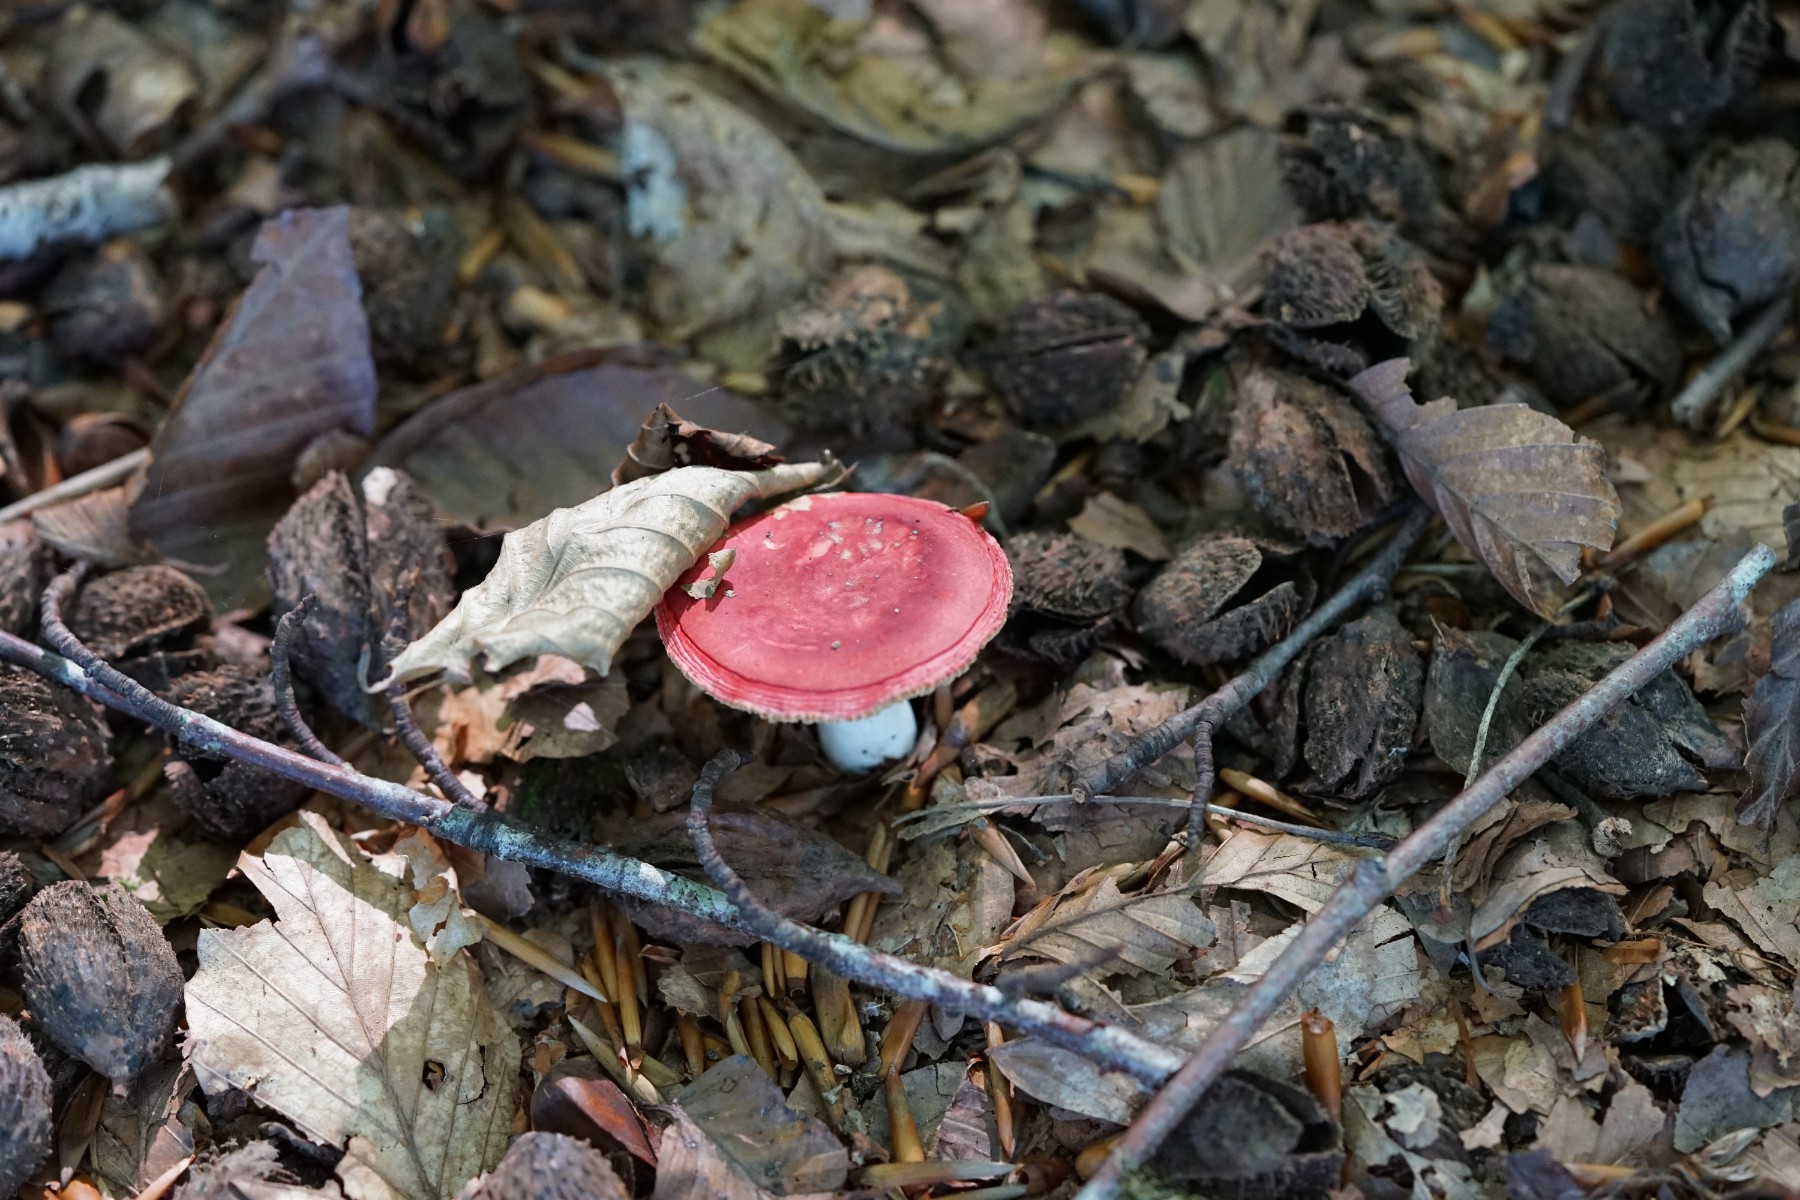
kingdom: Fungi
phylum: Basidiomycota
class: Agaricomycetes
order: Russulales
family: Russulaceae
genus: Russula
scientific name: Russula
